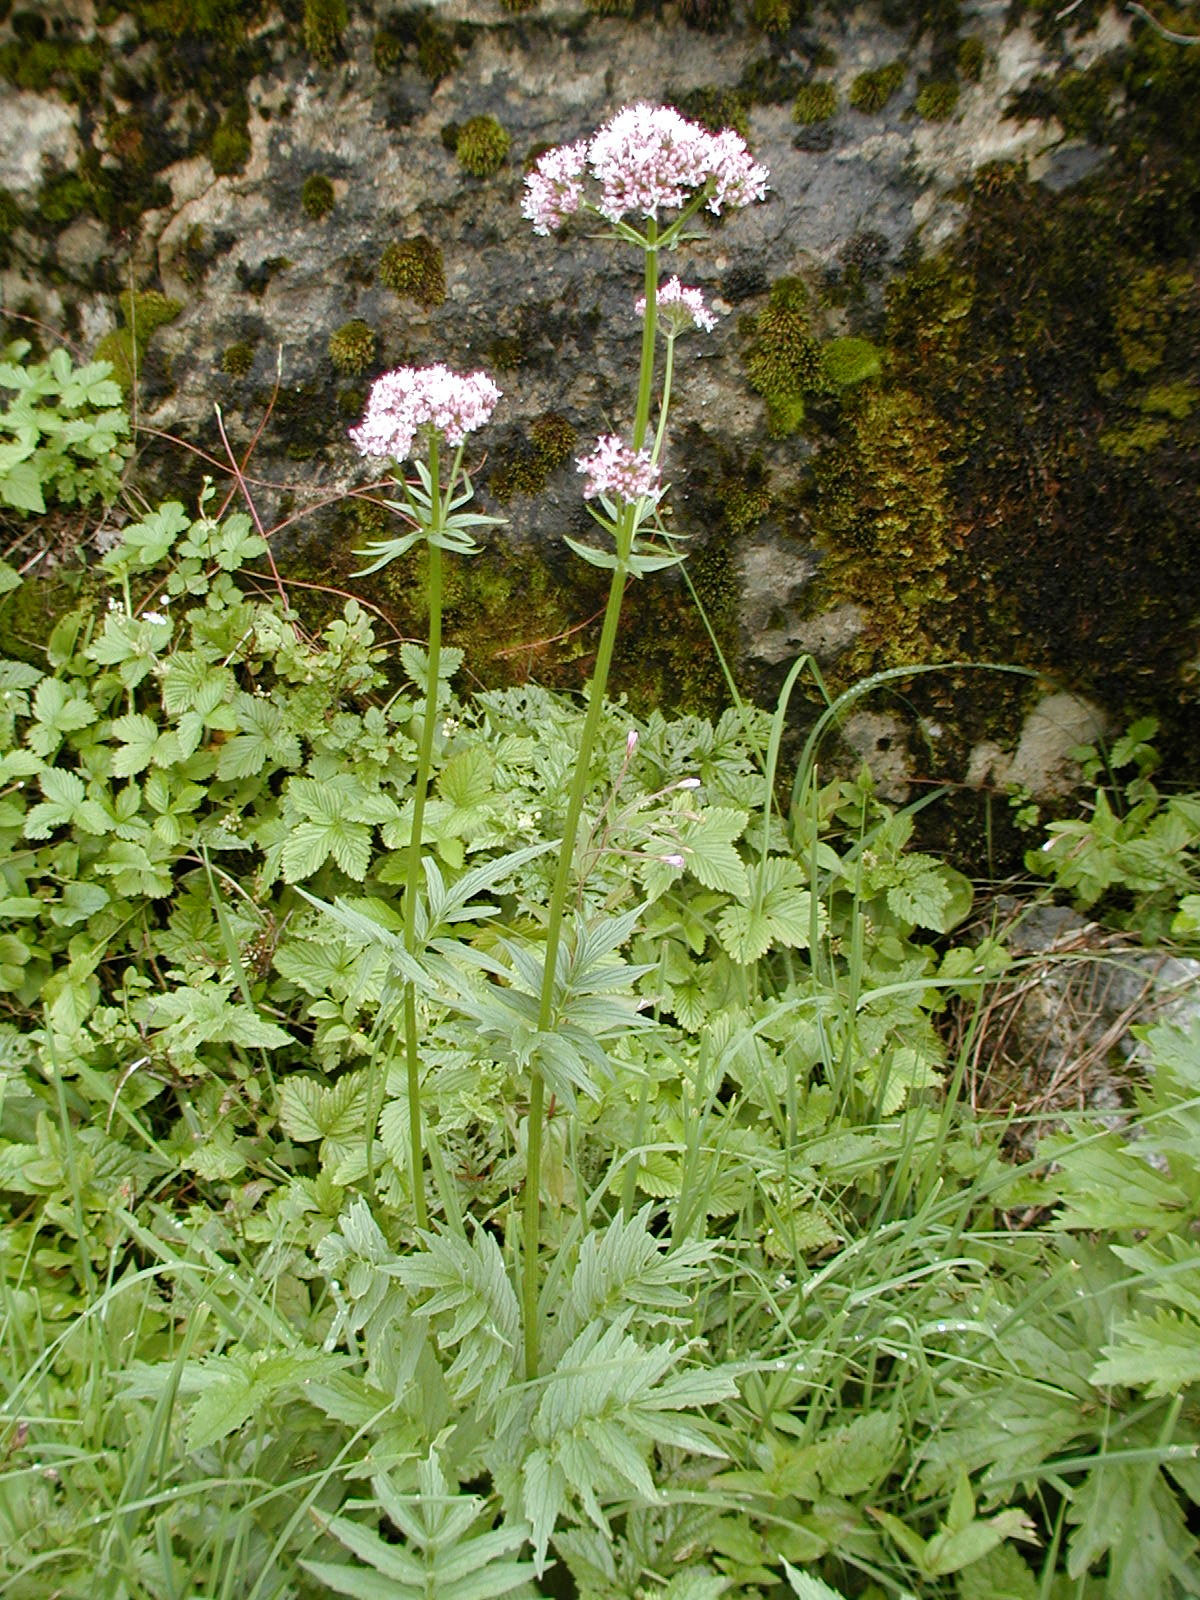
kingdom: Plantae
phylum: Tracheophyta
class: Magnoliopsida
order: Dipsacales
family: Caprifoliaceae
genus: Valeriana
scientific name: Valeriana officinalis
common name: Common valerian
